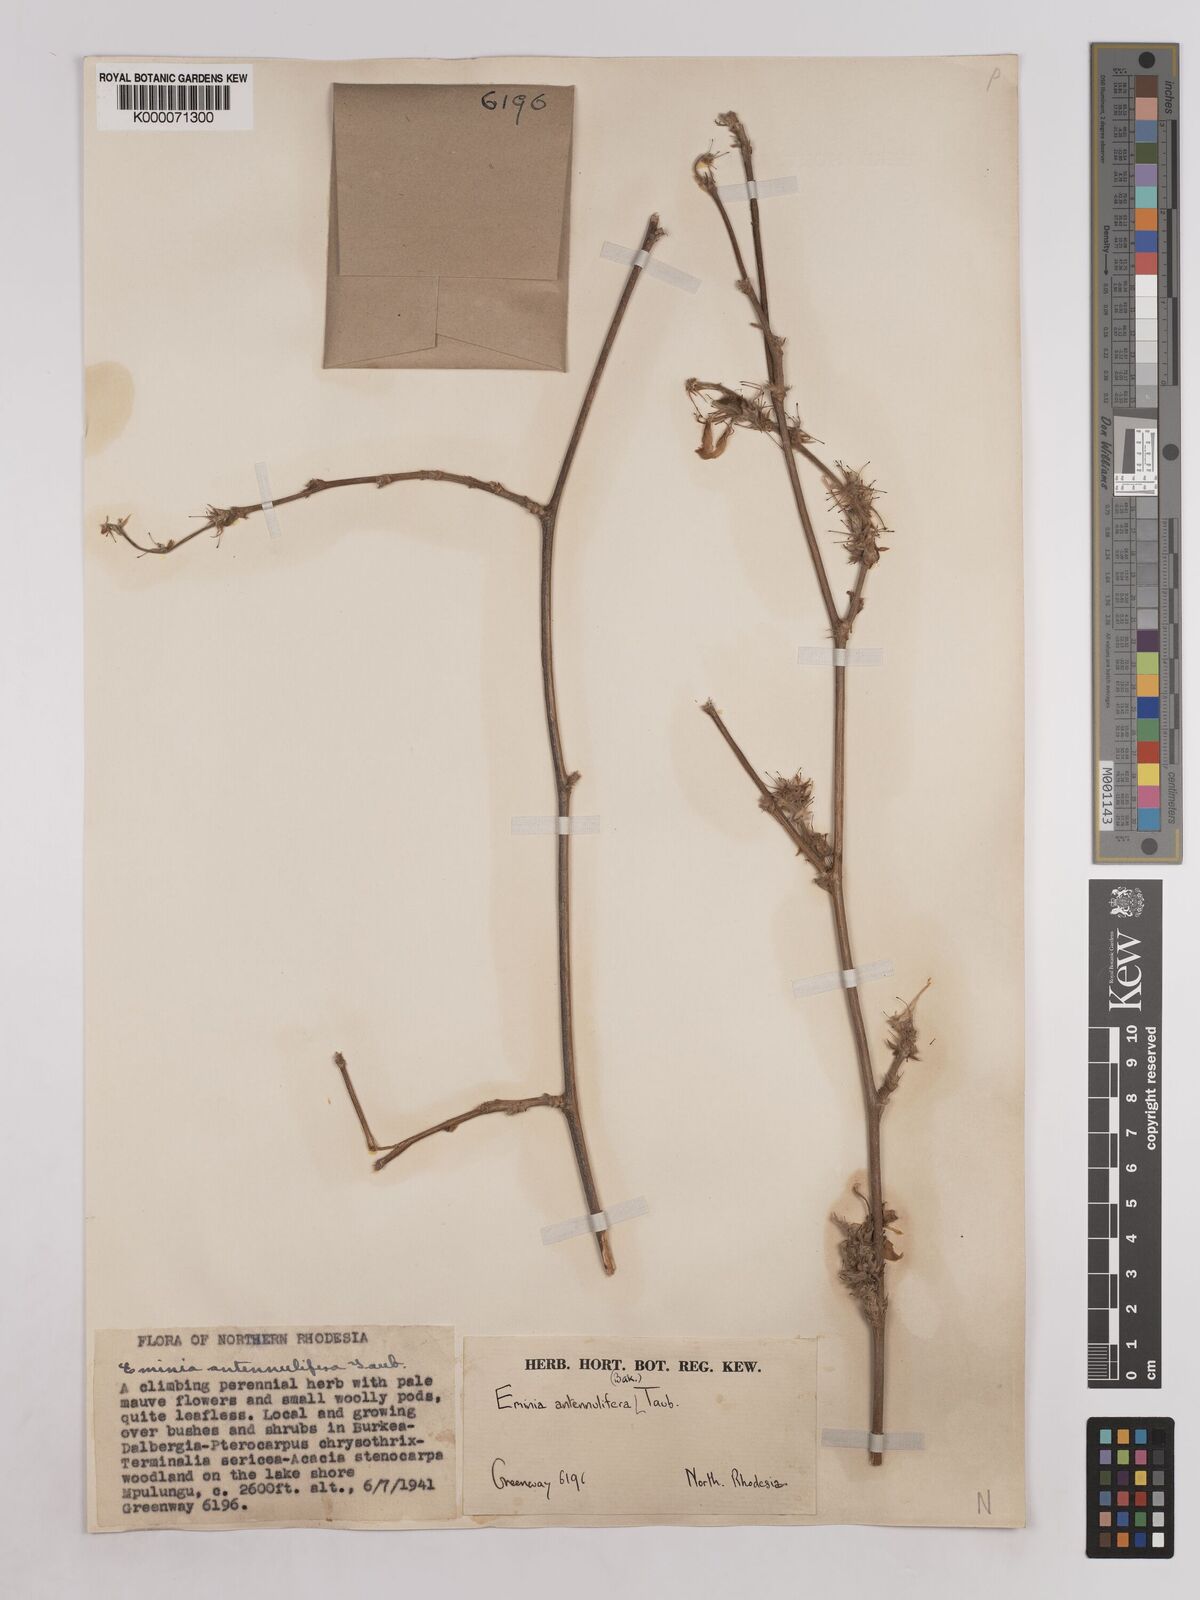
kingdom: Plantae
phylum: Tracheophyta
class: Magnoliopsida
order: Fabales
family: Fabaceae
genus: Eminia
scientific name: Eminia antennulifera
